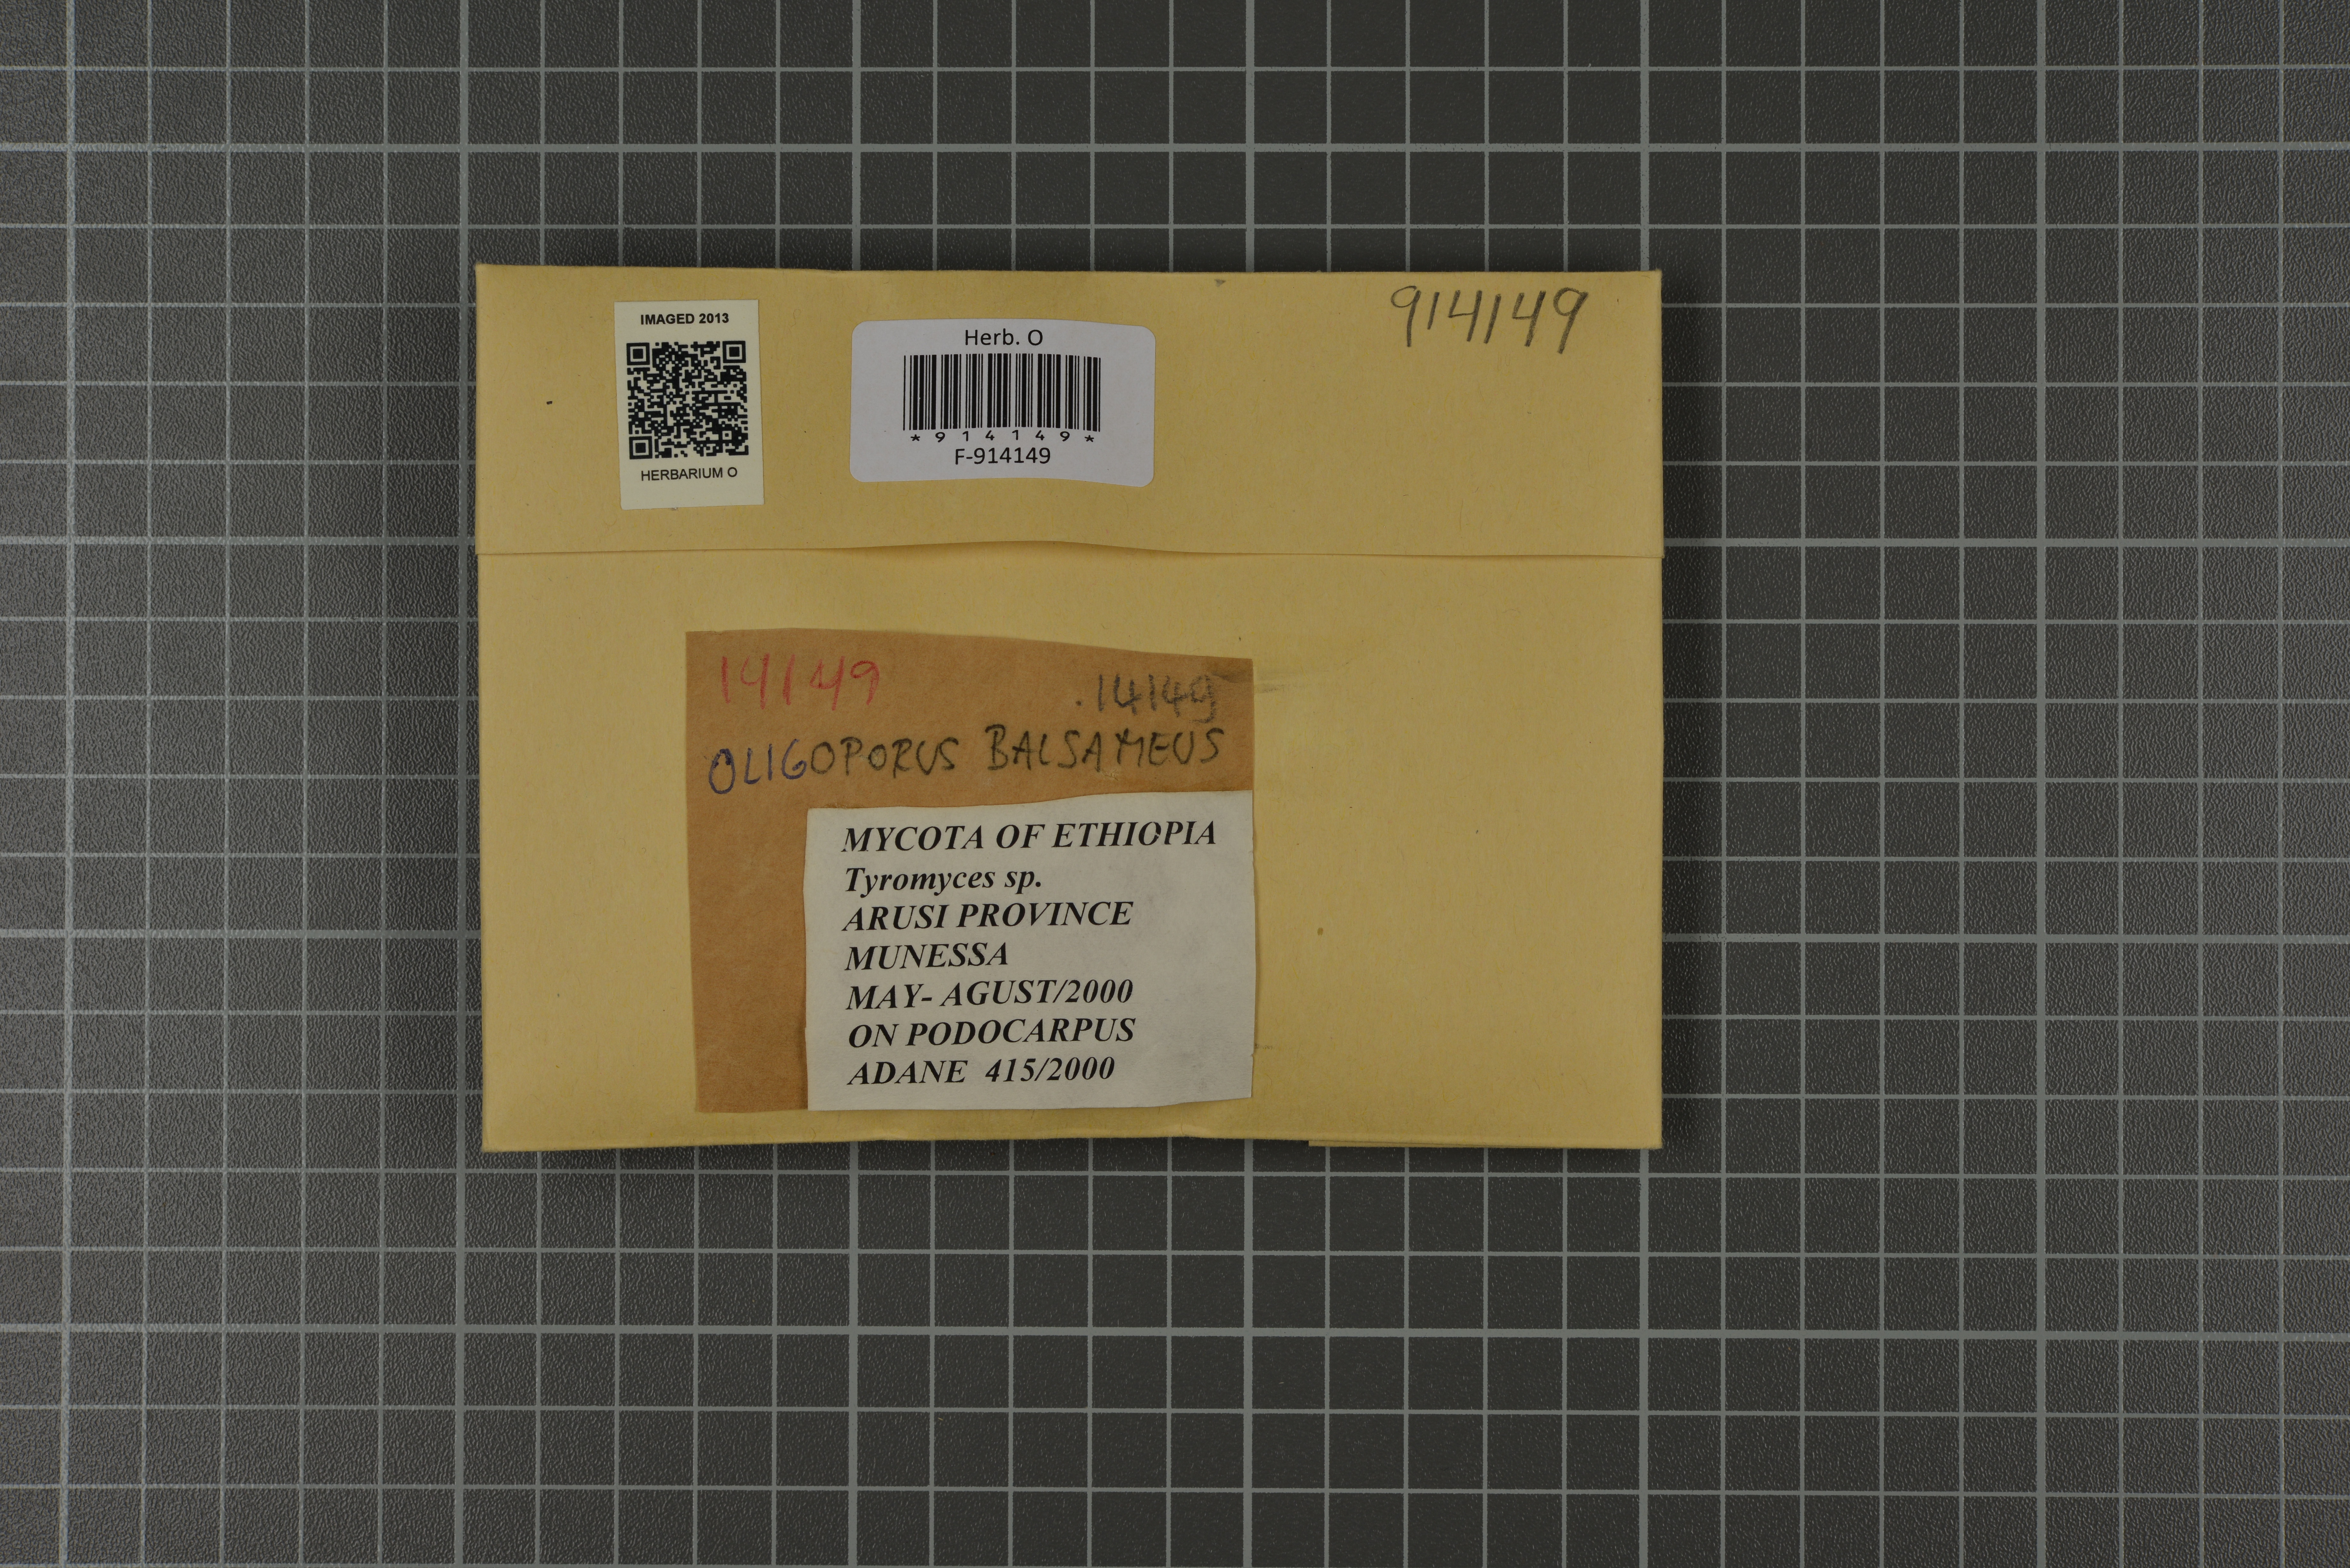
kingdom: Fungi
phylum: Basidiomycota
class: Agaricomycetes
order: Polyporales
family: Dacryobolaceae
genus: Postia
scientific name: Postia balsamea
